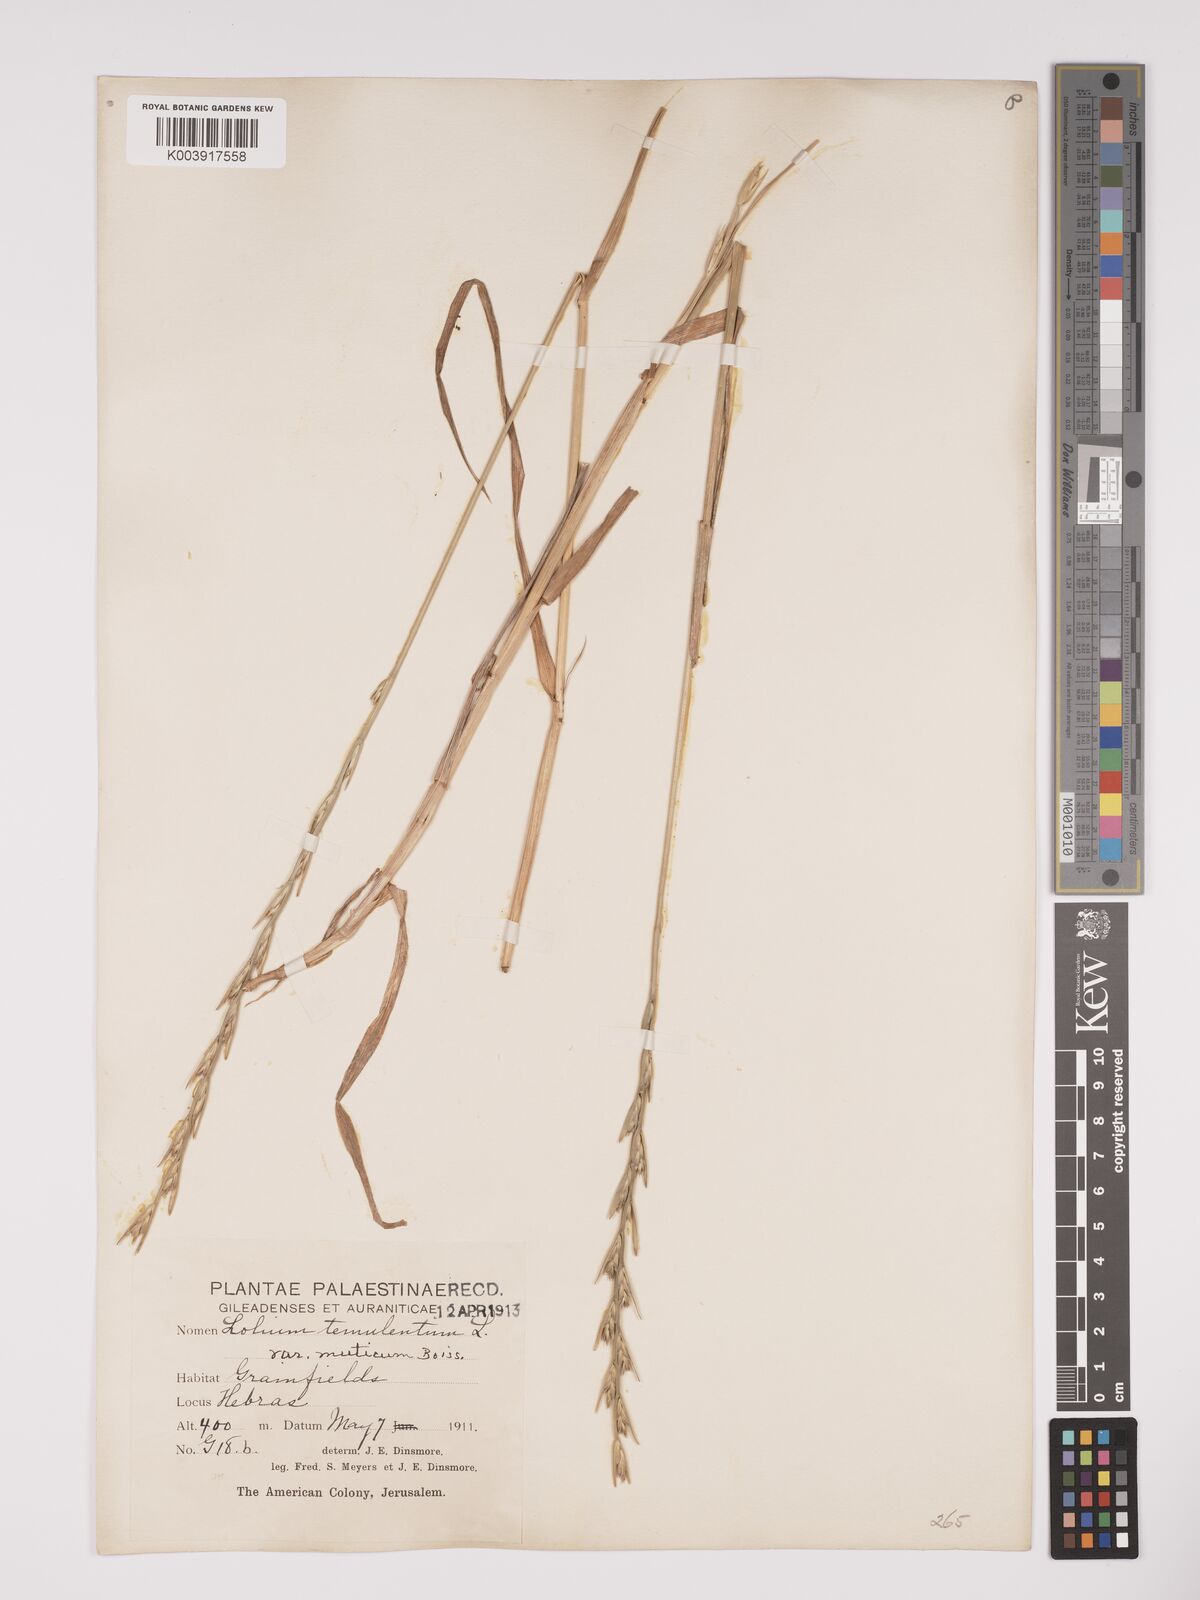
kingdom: Plantae
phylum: Tracheophyta
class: Liliopsida
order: Poales
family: Poaceae
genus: Lolium
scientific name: Lolium temulentum
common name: Darnel
